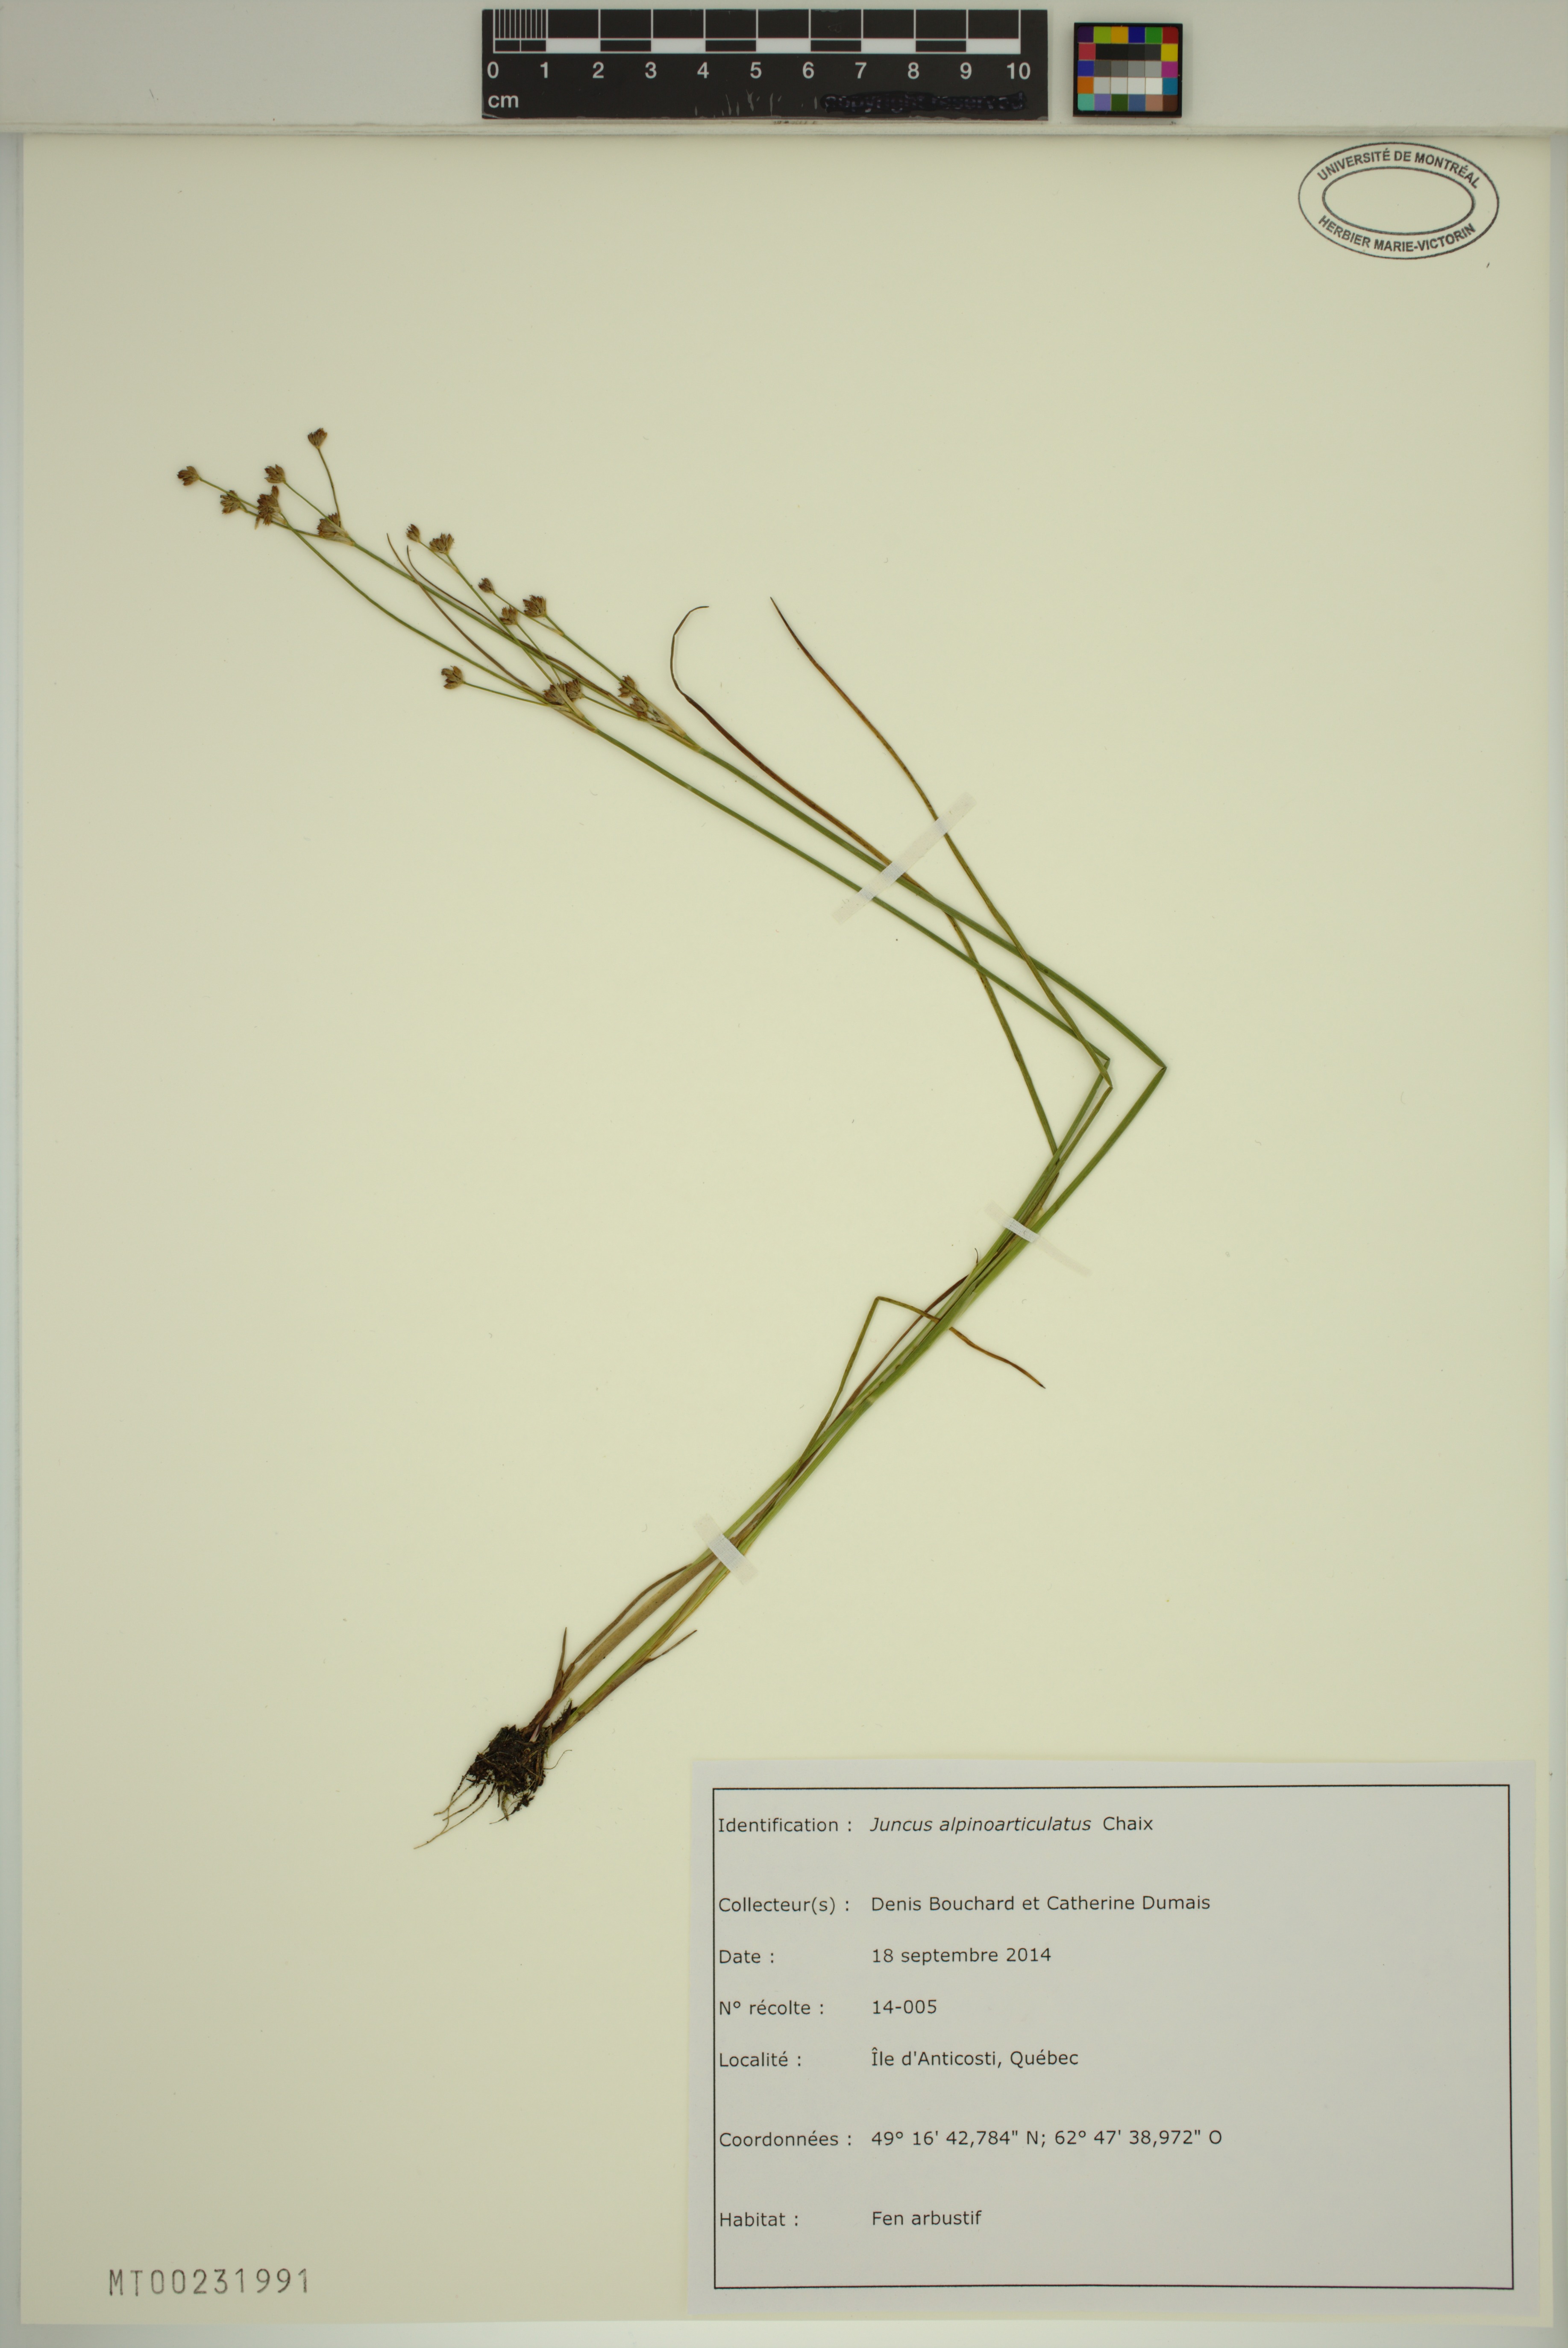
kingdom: Plantae
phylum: Tracheophyta
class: Liliopsida
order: Poales
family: Juncaceae
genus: Juncus
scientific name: Juncus alpinoarticulatus
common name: Alpine rush
